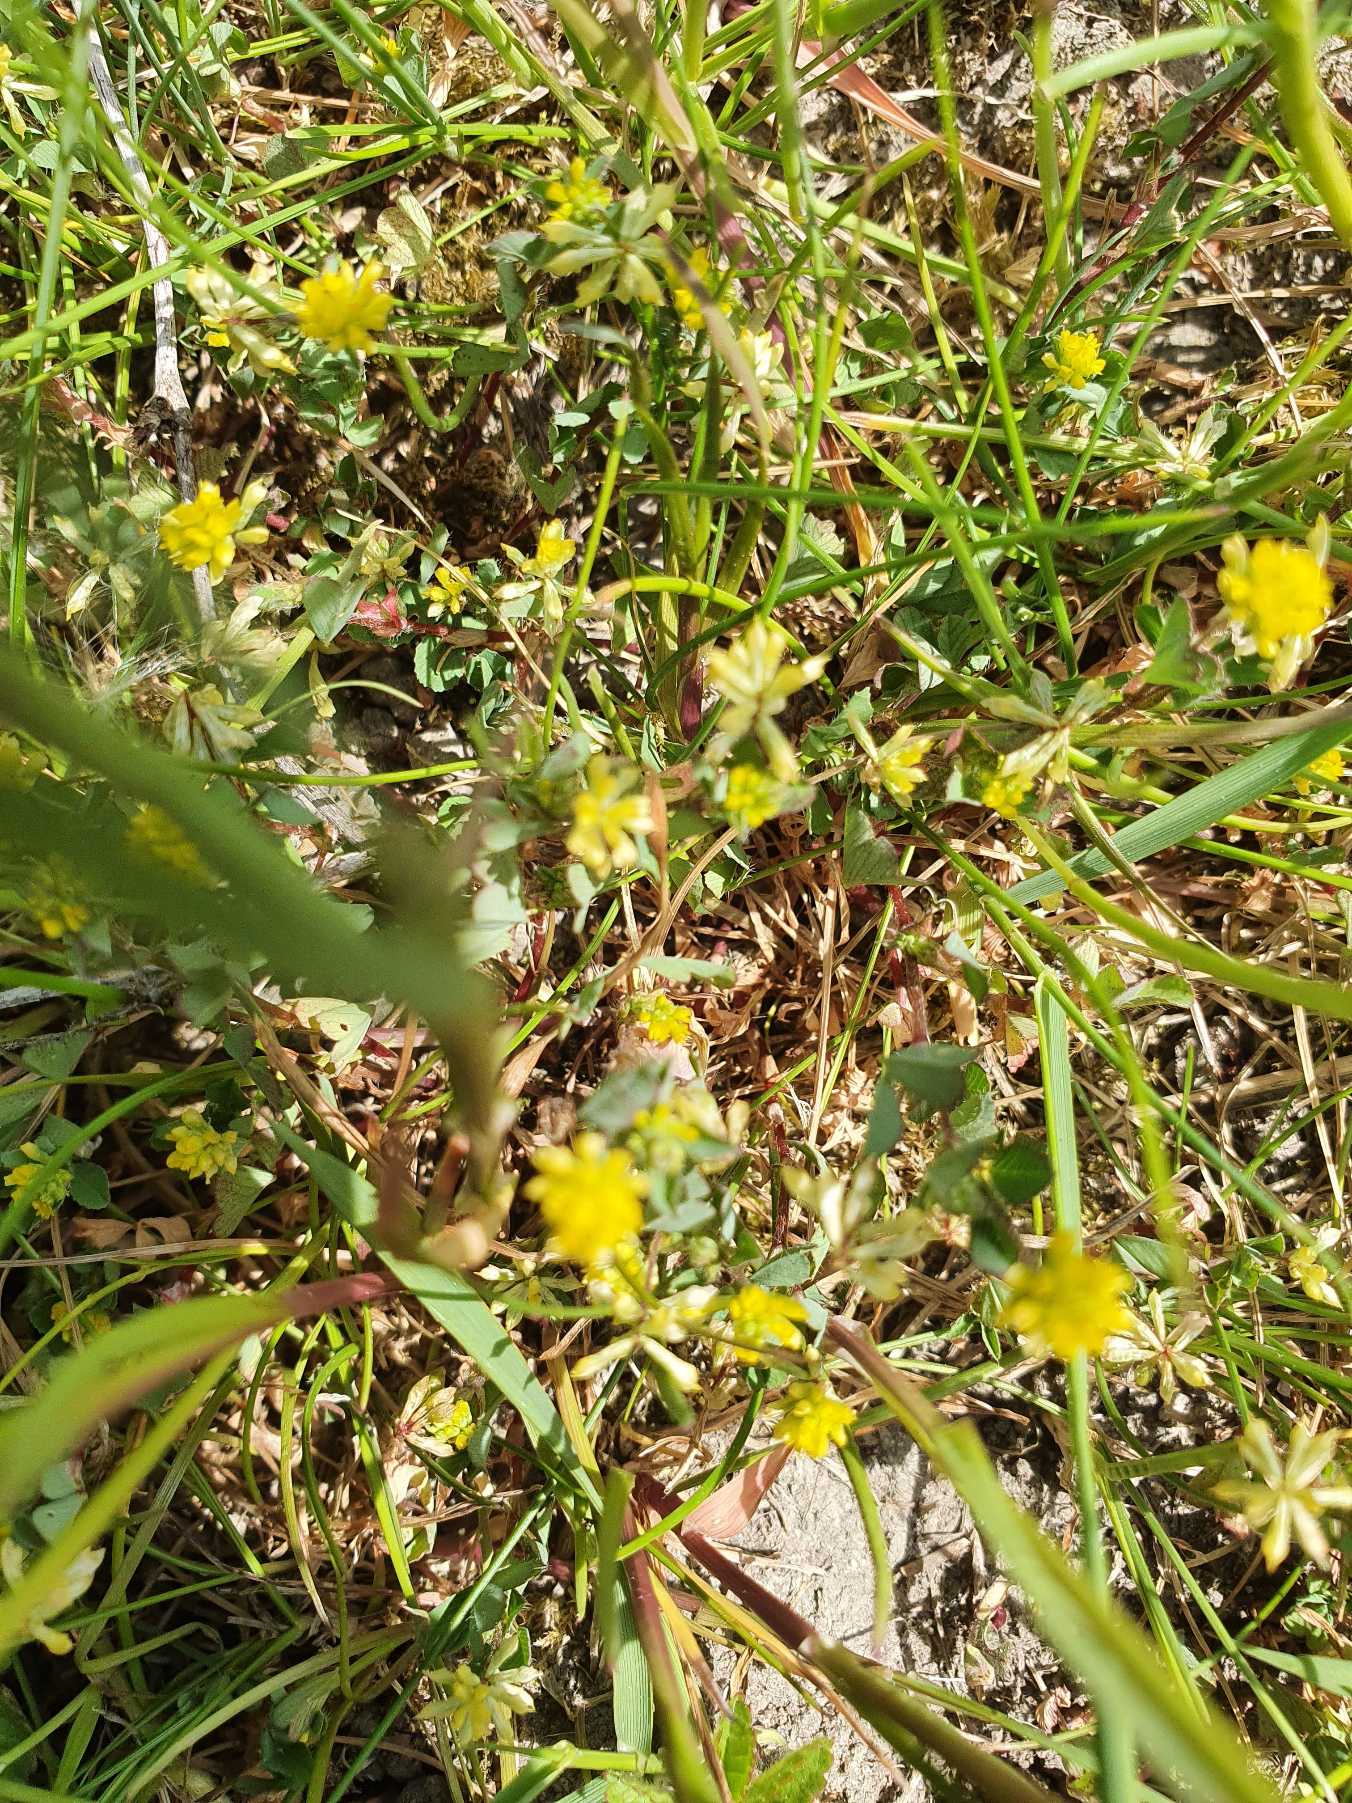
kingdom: Plantae
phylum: Tracheophyta
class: Magnoliopsida
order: Fabales
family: Fabaceae
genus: Trifolium
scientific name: Trifolium dubium
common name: Fin kløver
